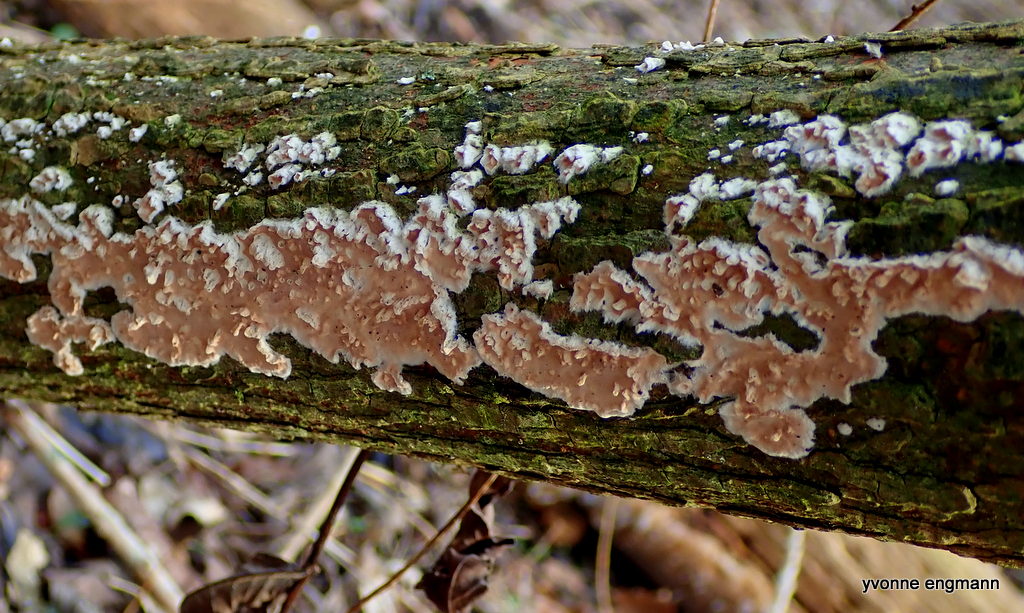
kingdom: Fungi
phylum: Basidiomycota
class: Agaricomycetes
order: Agaricales
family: Physalacriaceae
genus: Cylindrobasidium
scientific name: Cylindrobasidium evolvens
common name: sprækkehinde
